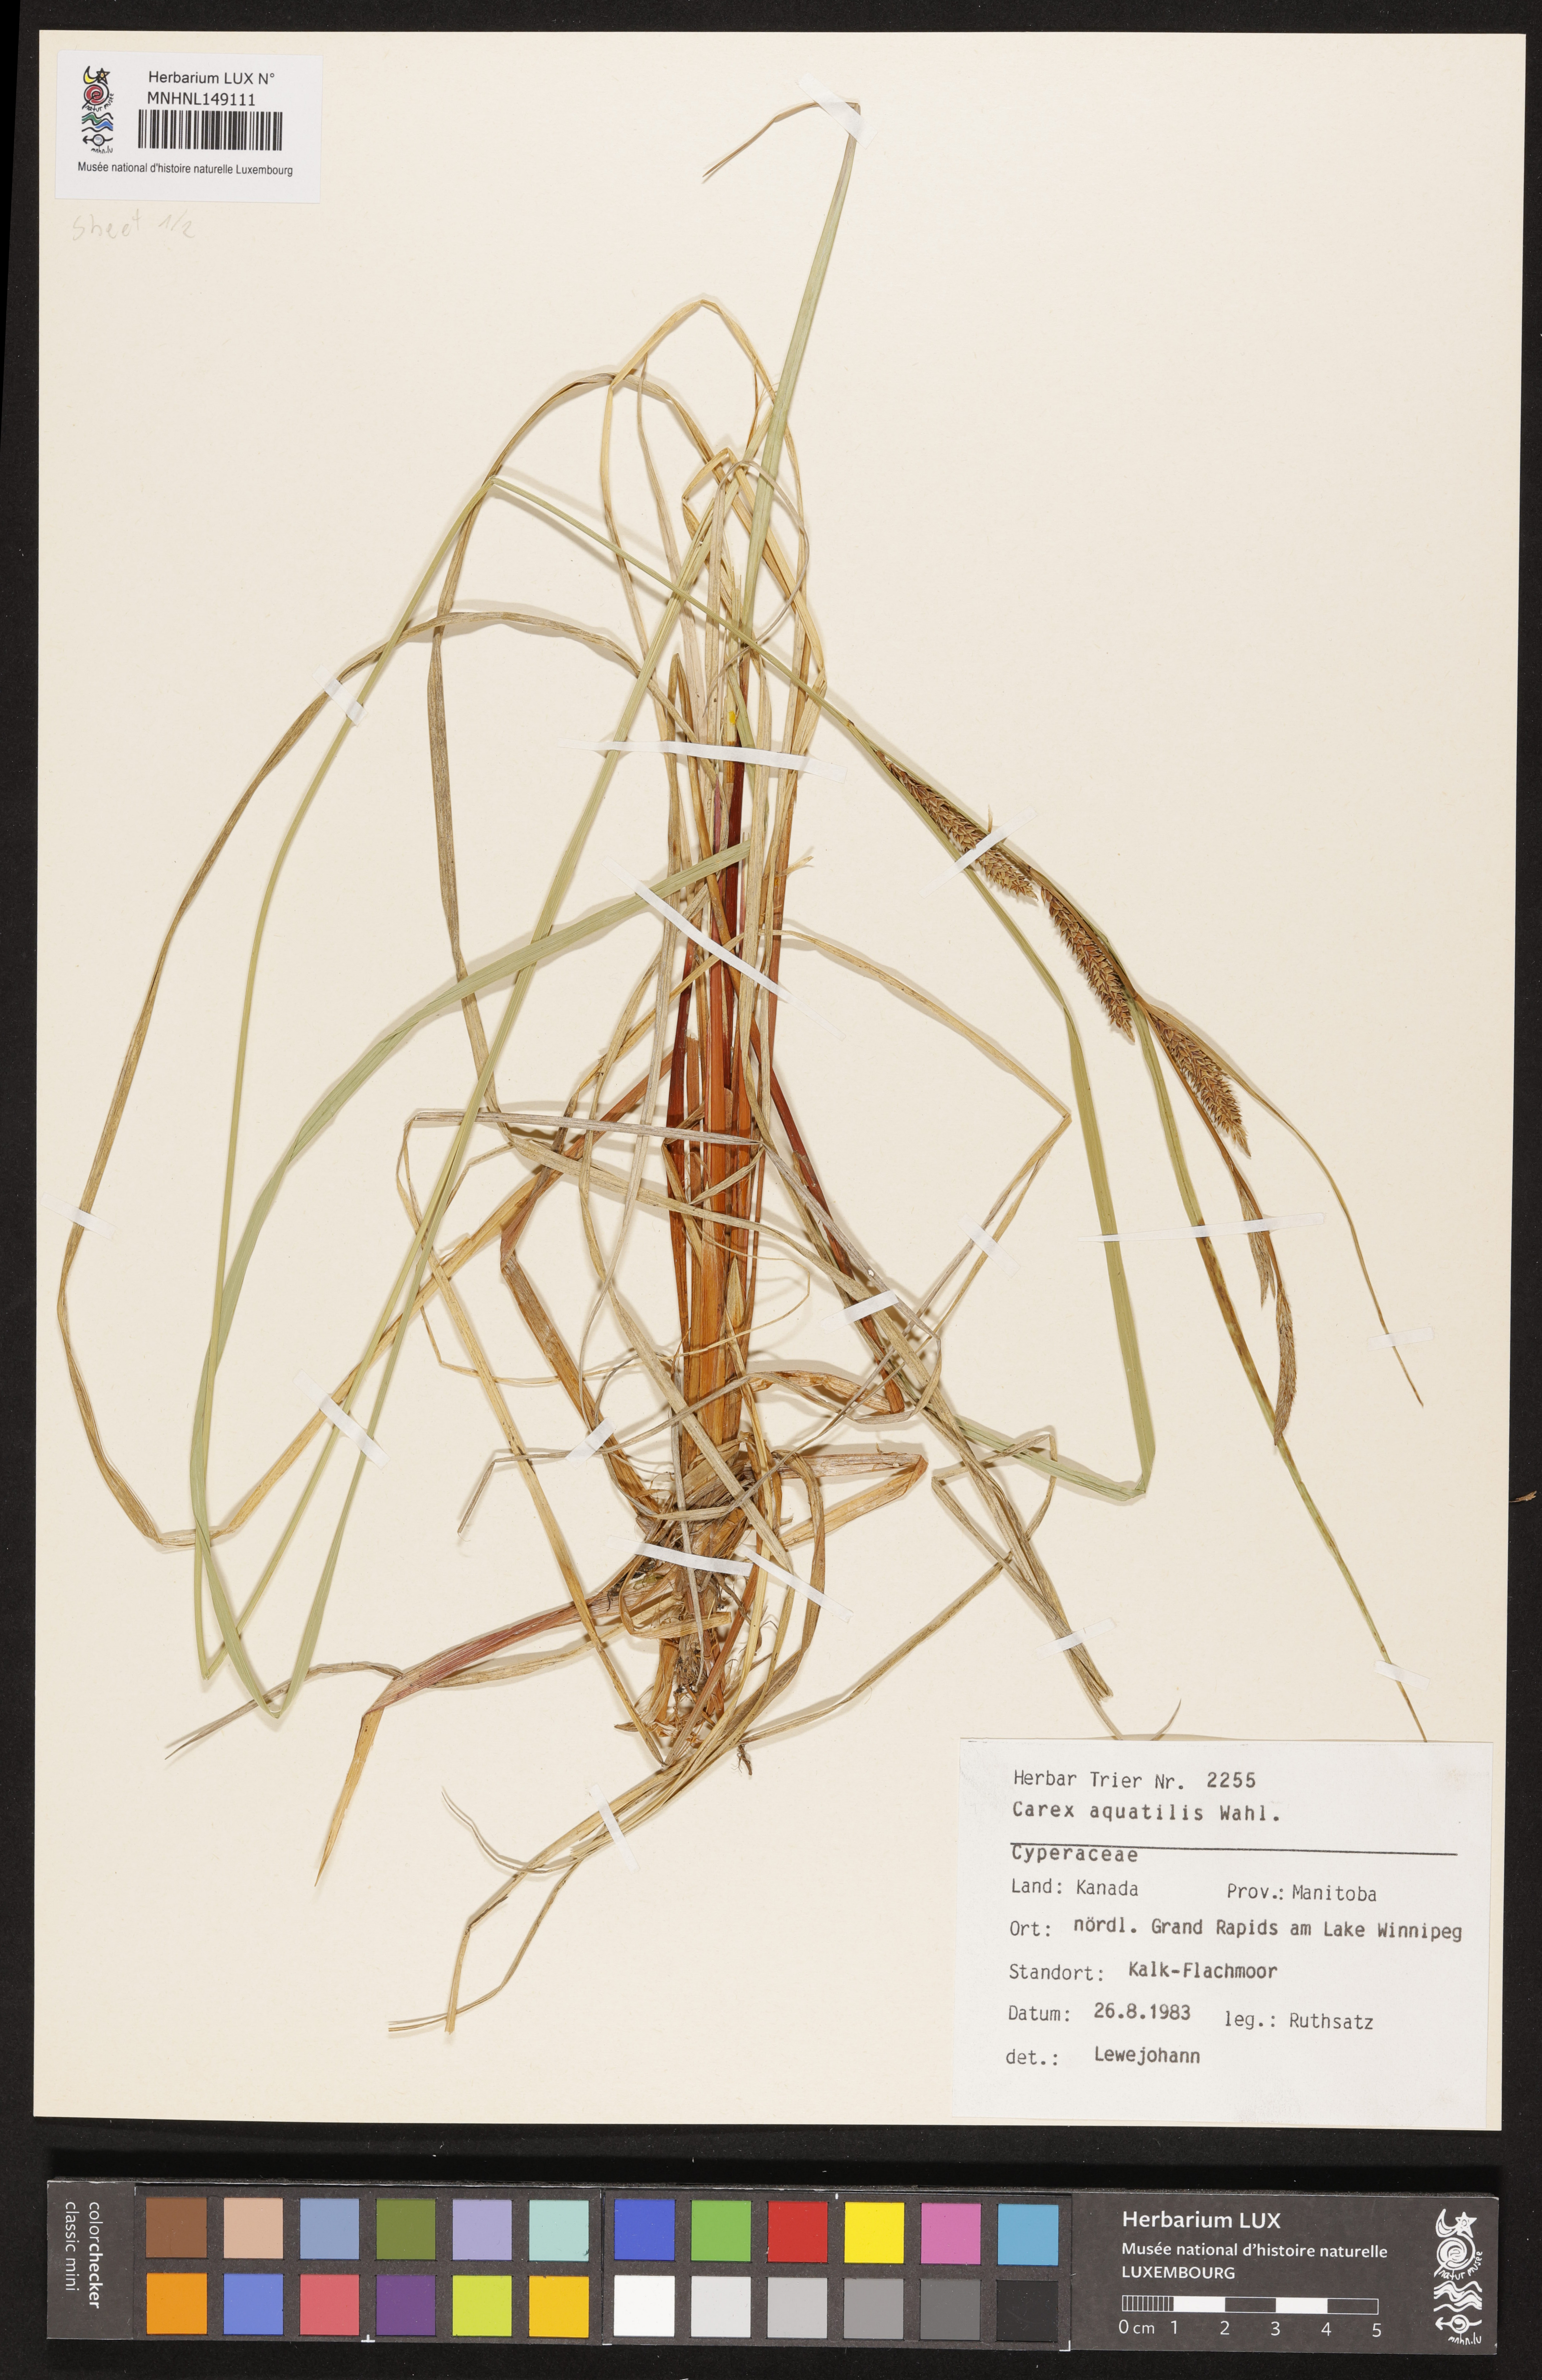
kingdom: Plantae
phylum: Tracheophyta
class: Liliopsida
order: Poales
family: Cyperaceae
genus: Carex
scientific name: Carex aquatilis
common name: Water sedge
